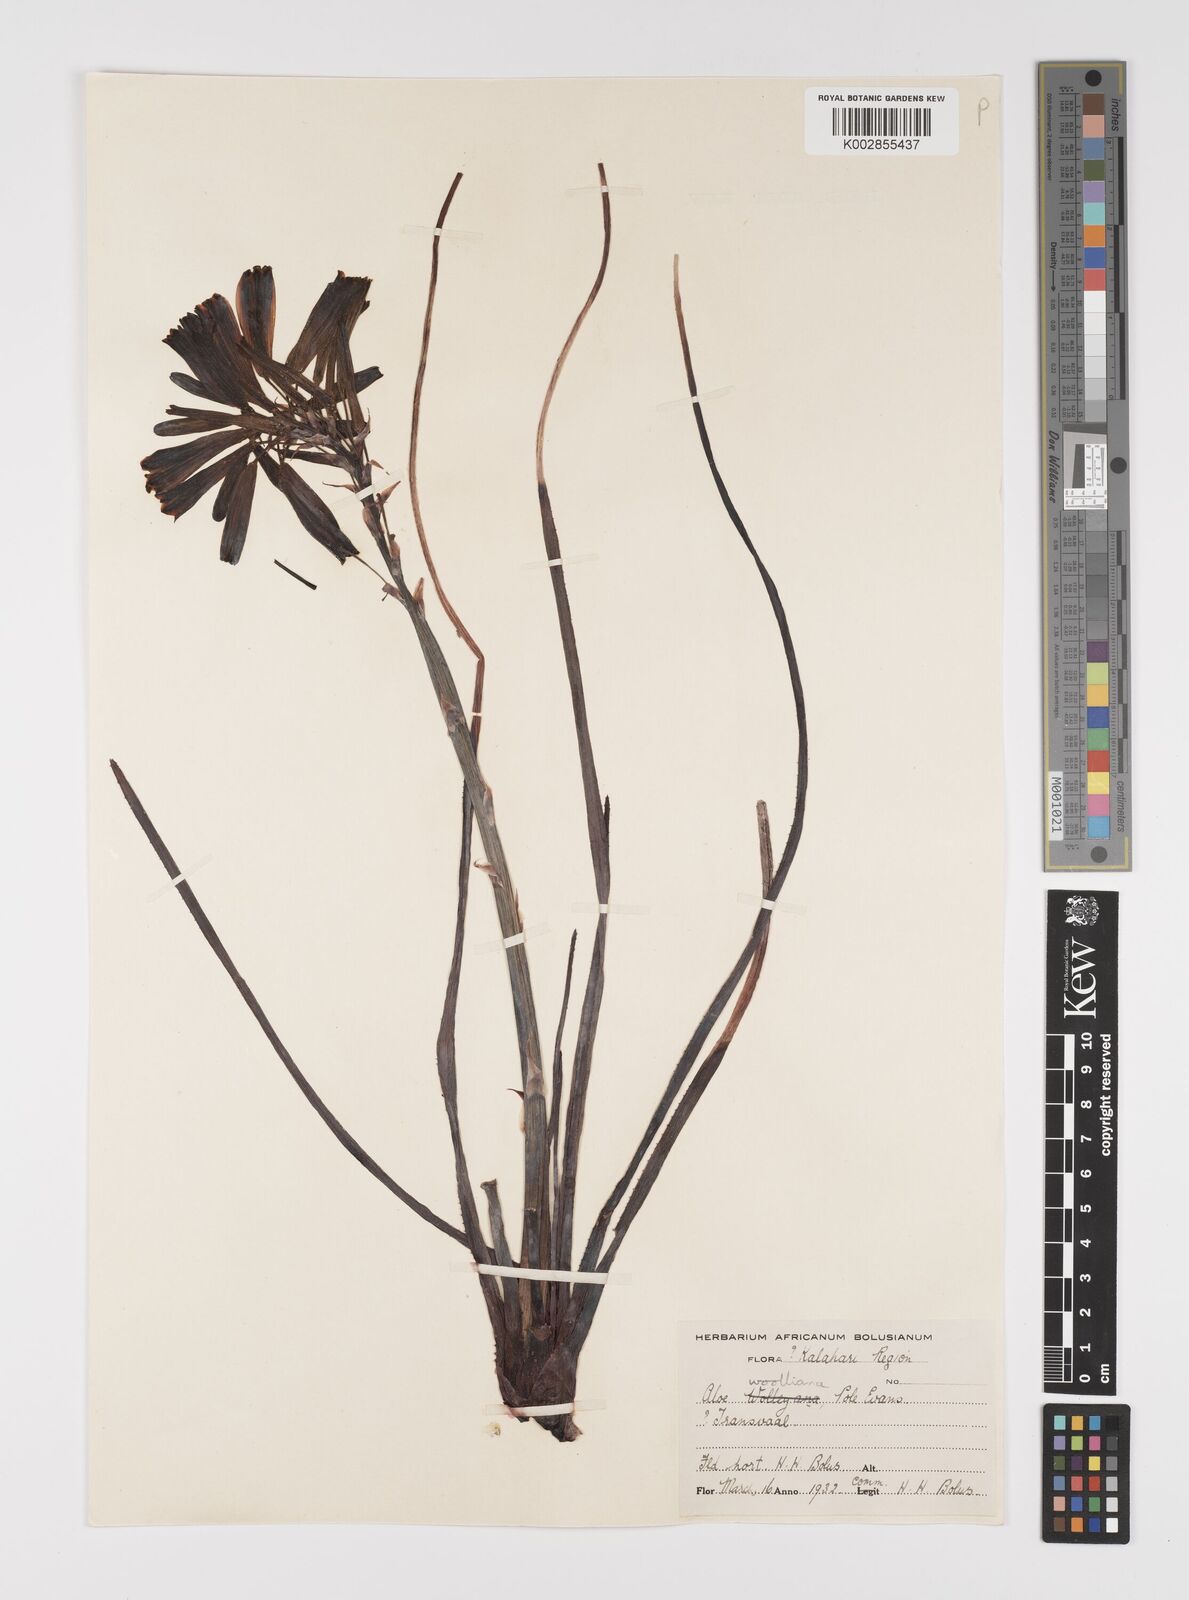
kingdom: Plantae
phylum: Tracheophyta
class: Liliopsida
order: Asparagales
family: Asphodelaceae
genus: Aloe
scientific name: Aloe chortolirioides
